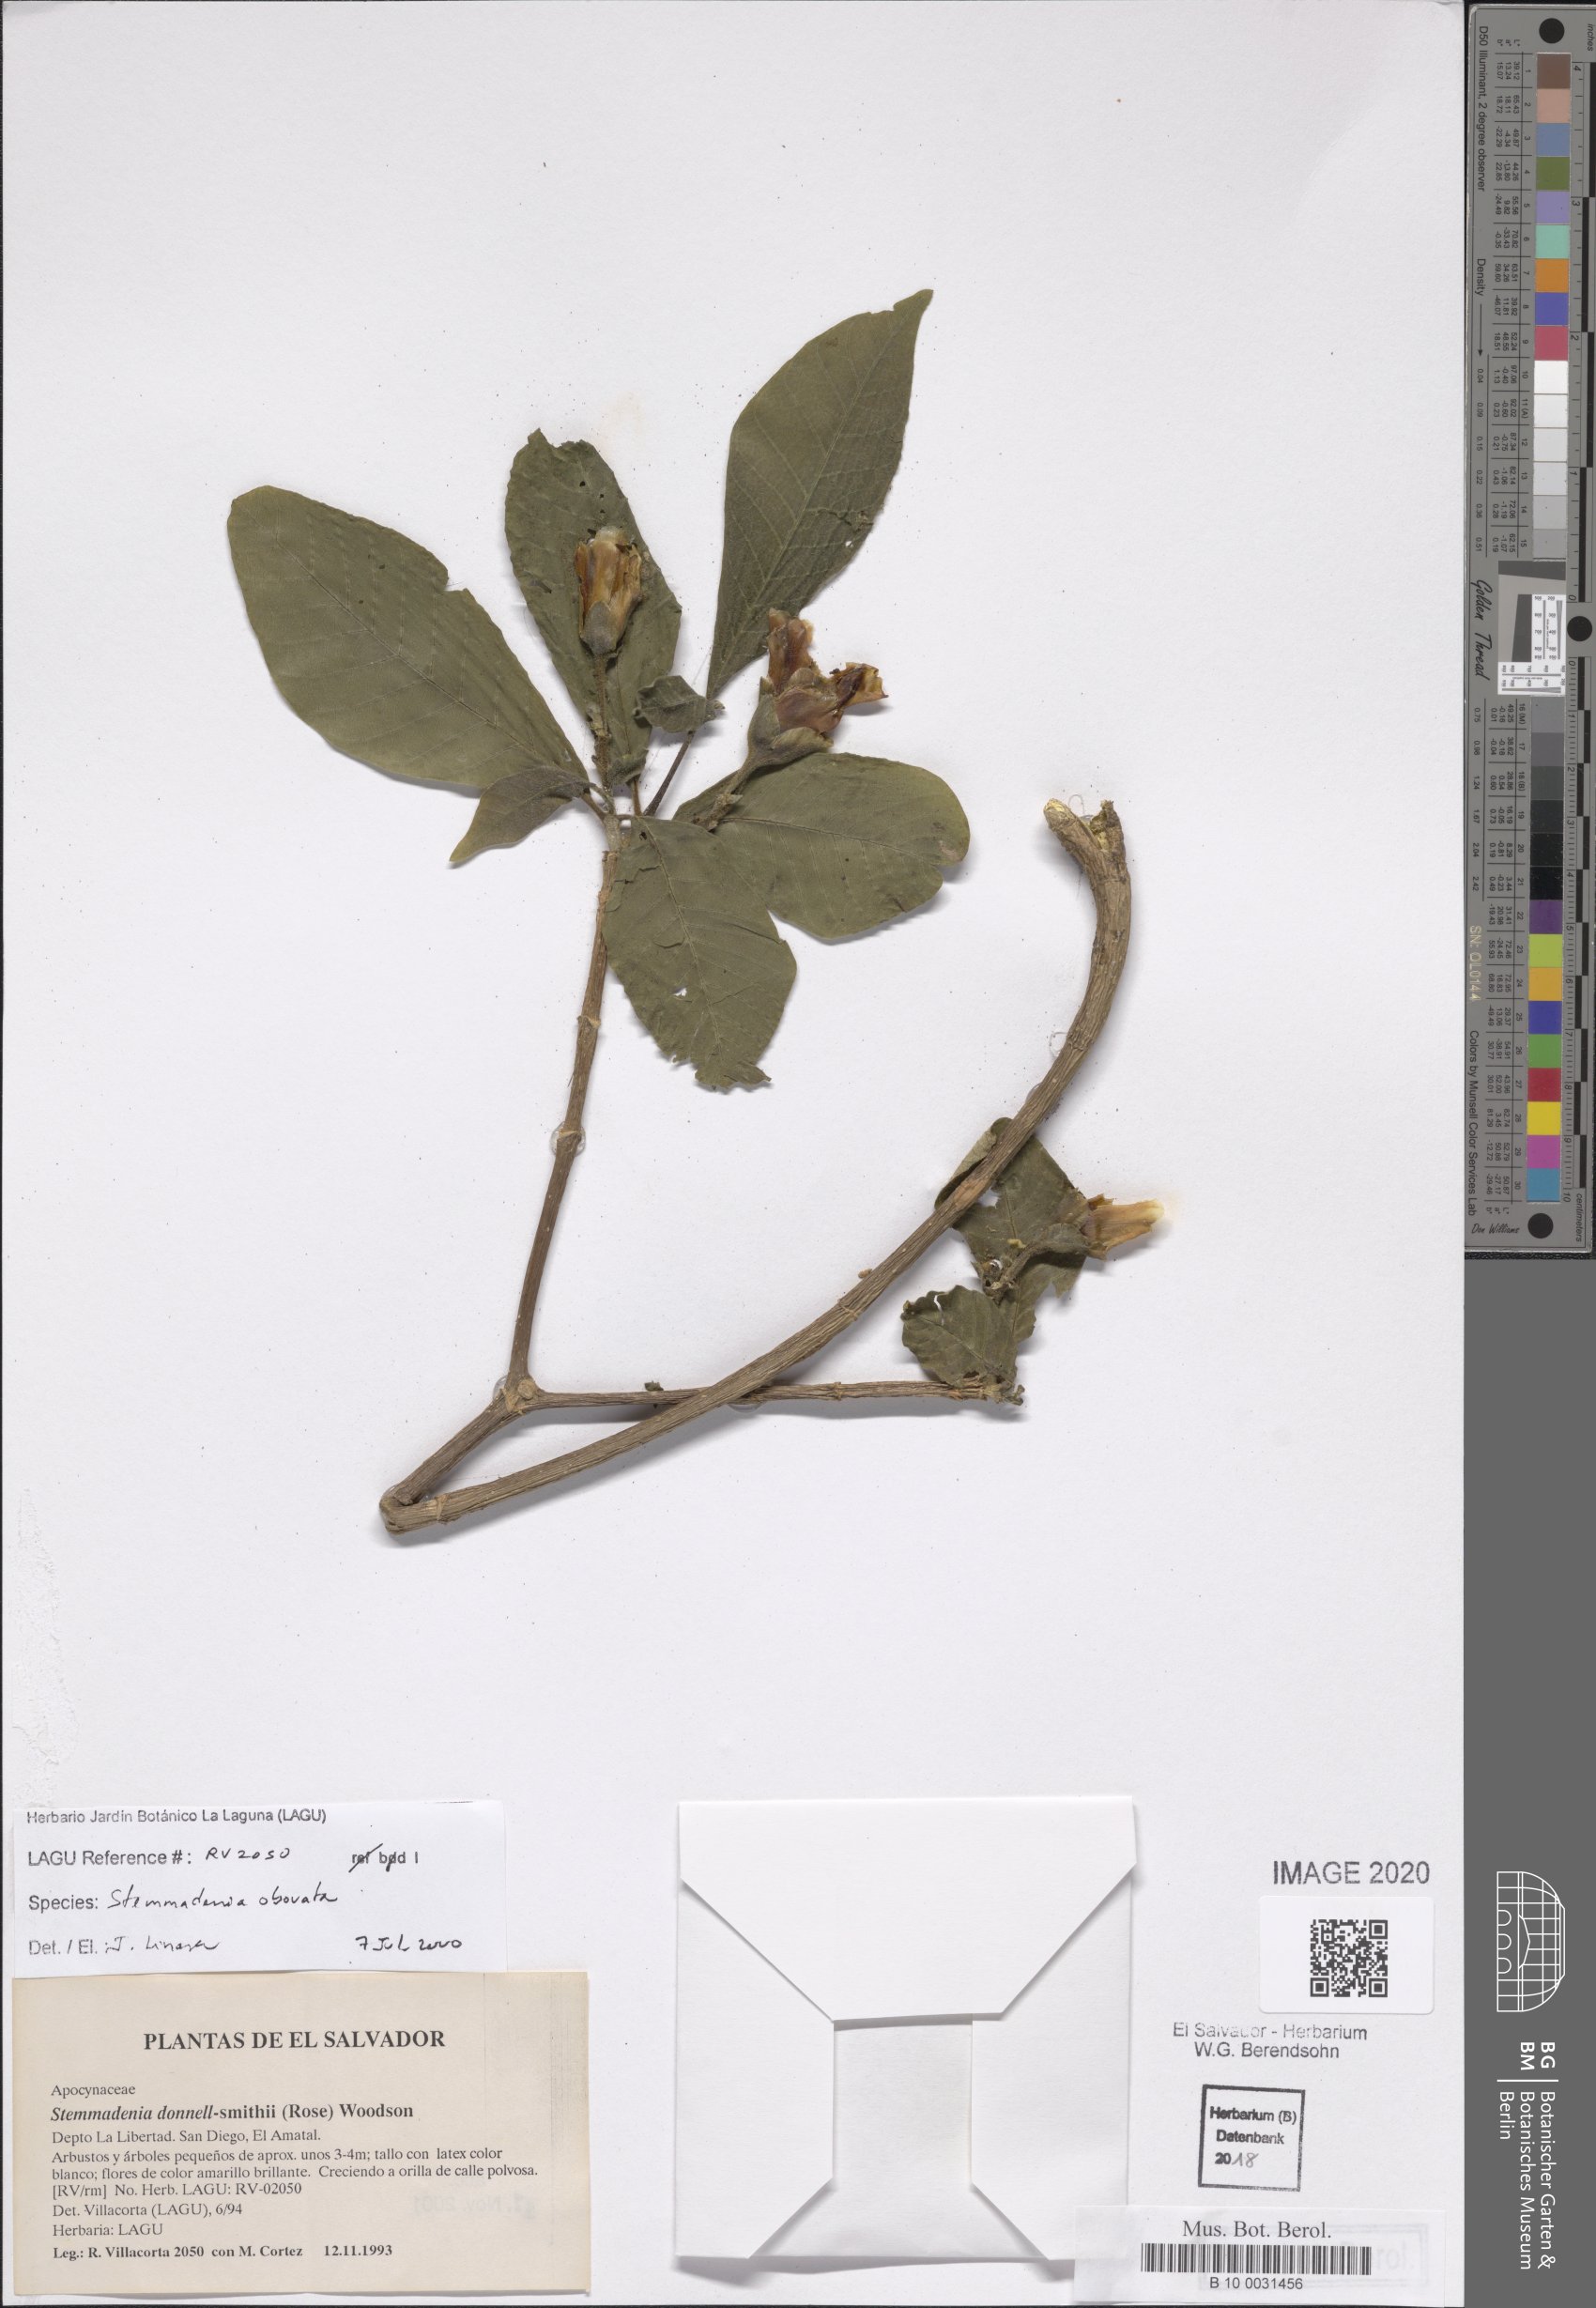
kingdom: Plantae
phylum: Tracheophyta
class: Magnoliopsida
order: Gentianales
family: Apocynaceae
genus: Tabernaemontana
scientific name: Tabernaemontana glabra
